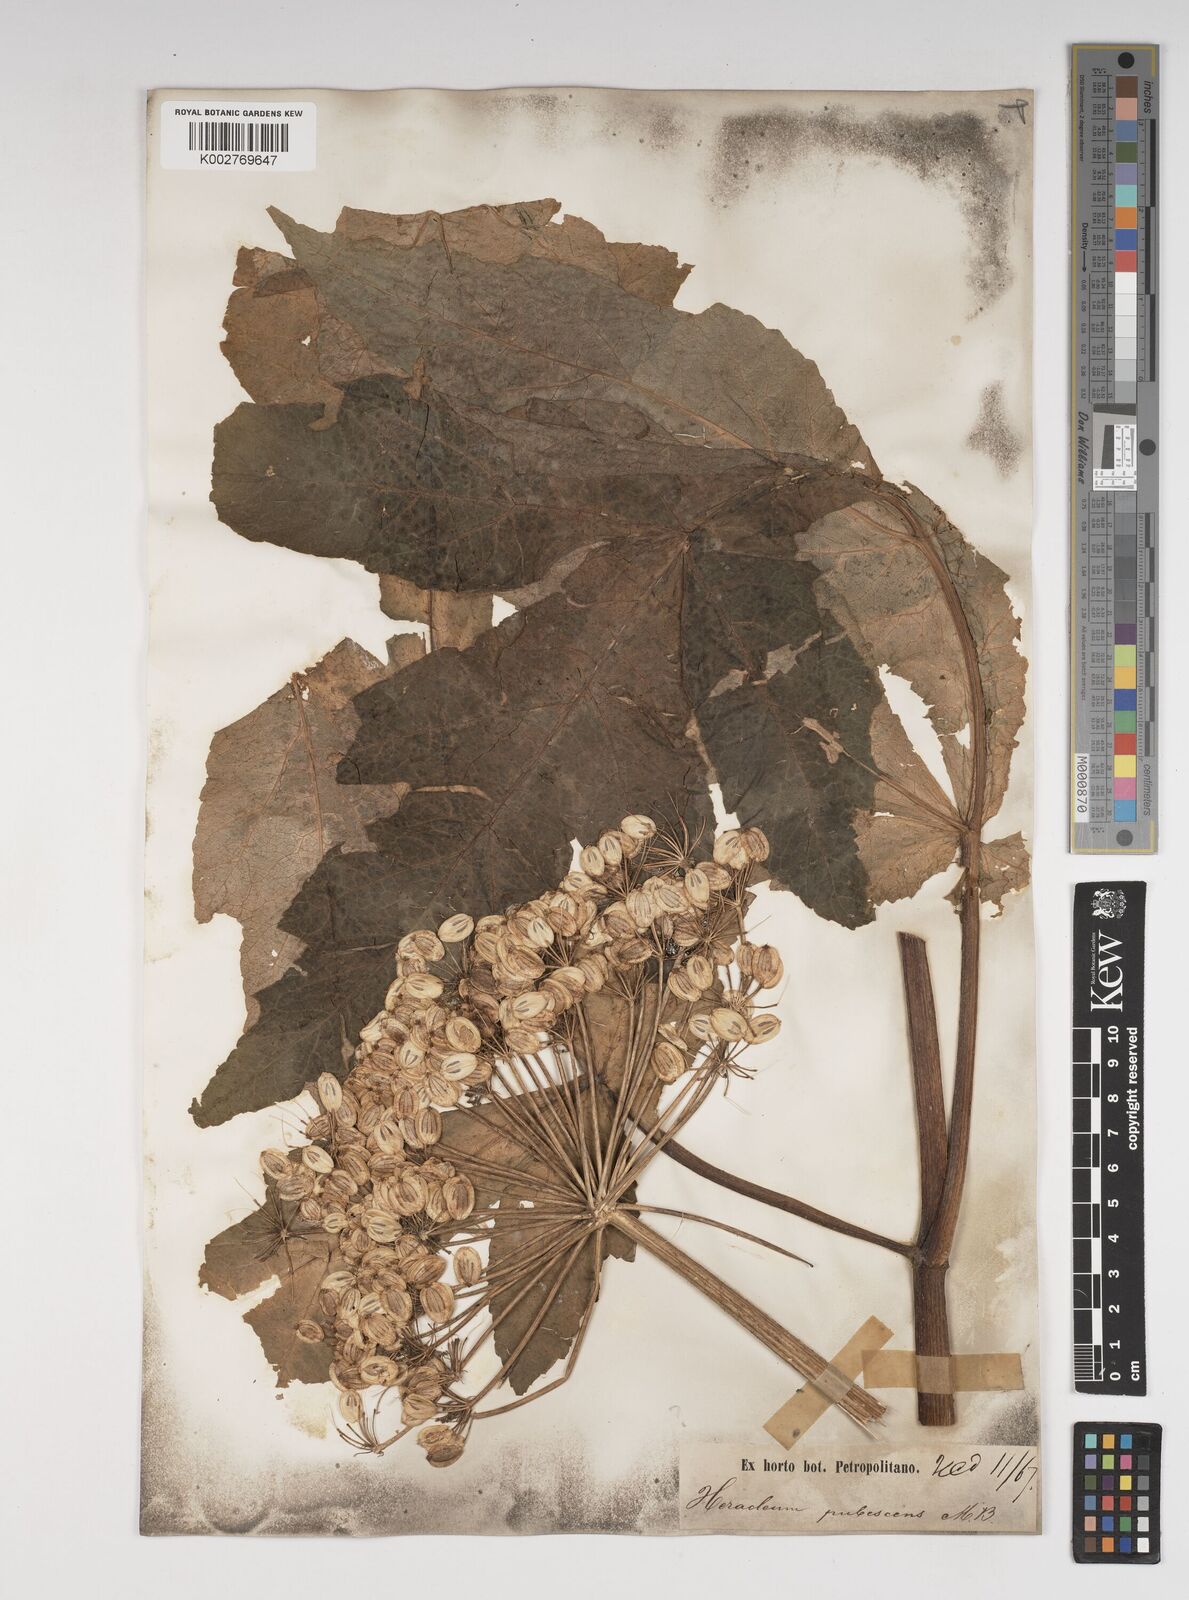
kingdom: Plantae
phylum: Tracheophyta
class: Magnoliopsida
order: Apiales
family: Apiaceae
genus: Heracleum
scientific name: Heracleum pubescens
